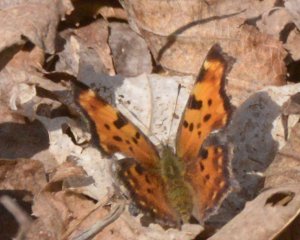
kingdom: Animalia
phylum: Arthropoda
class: Insecta
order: Lepidoptera
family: Nymphalidae
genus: Polygonia
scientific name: Polygonia comma
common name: Eastern Comma
